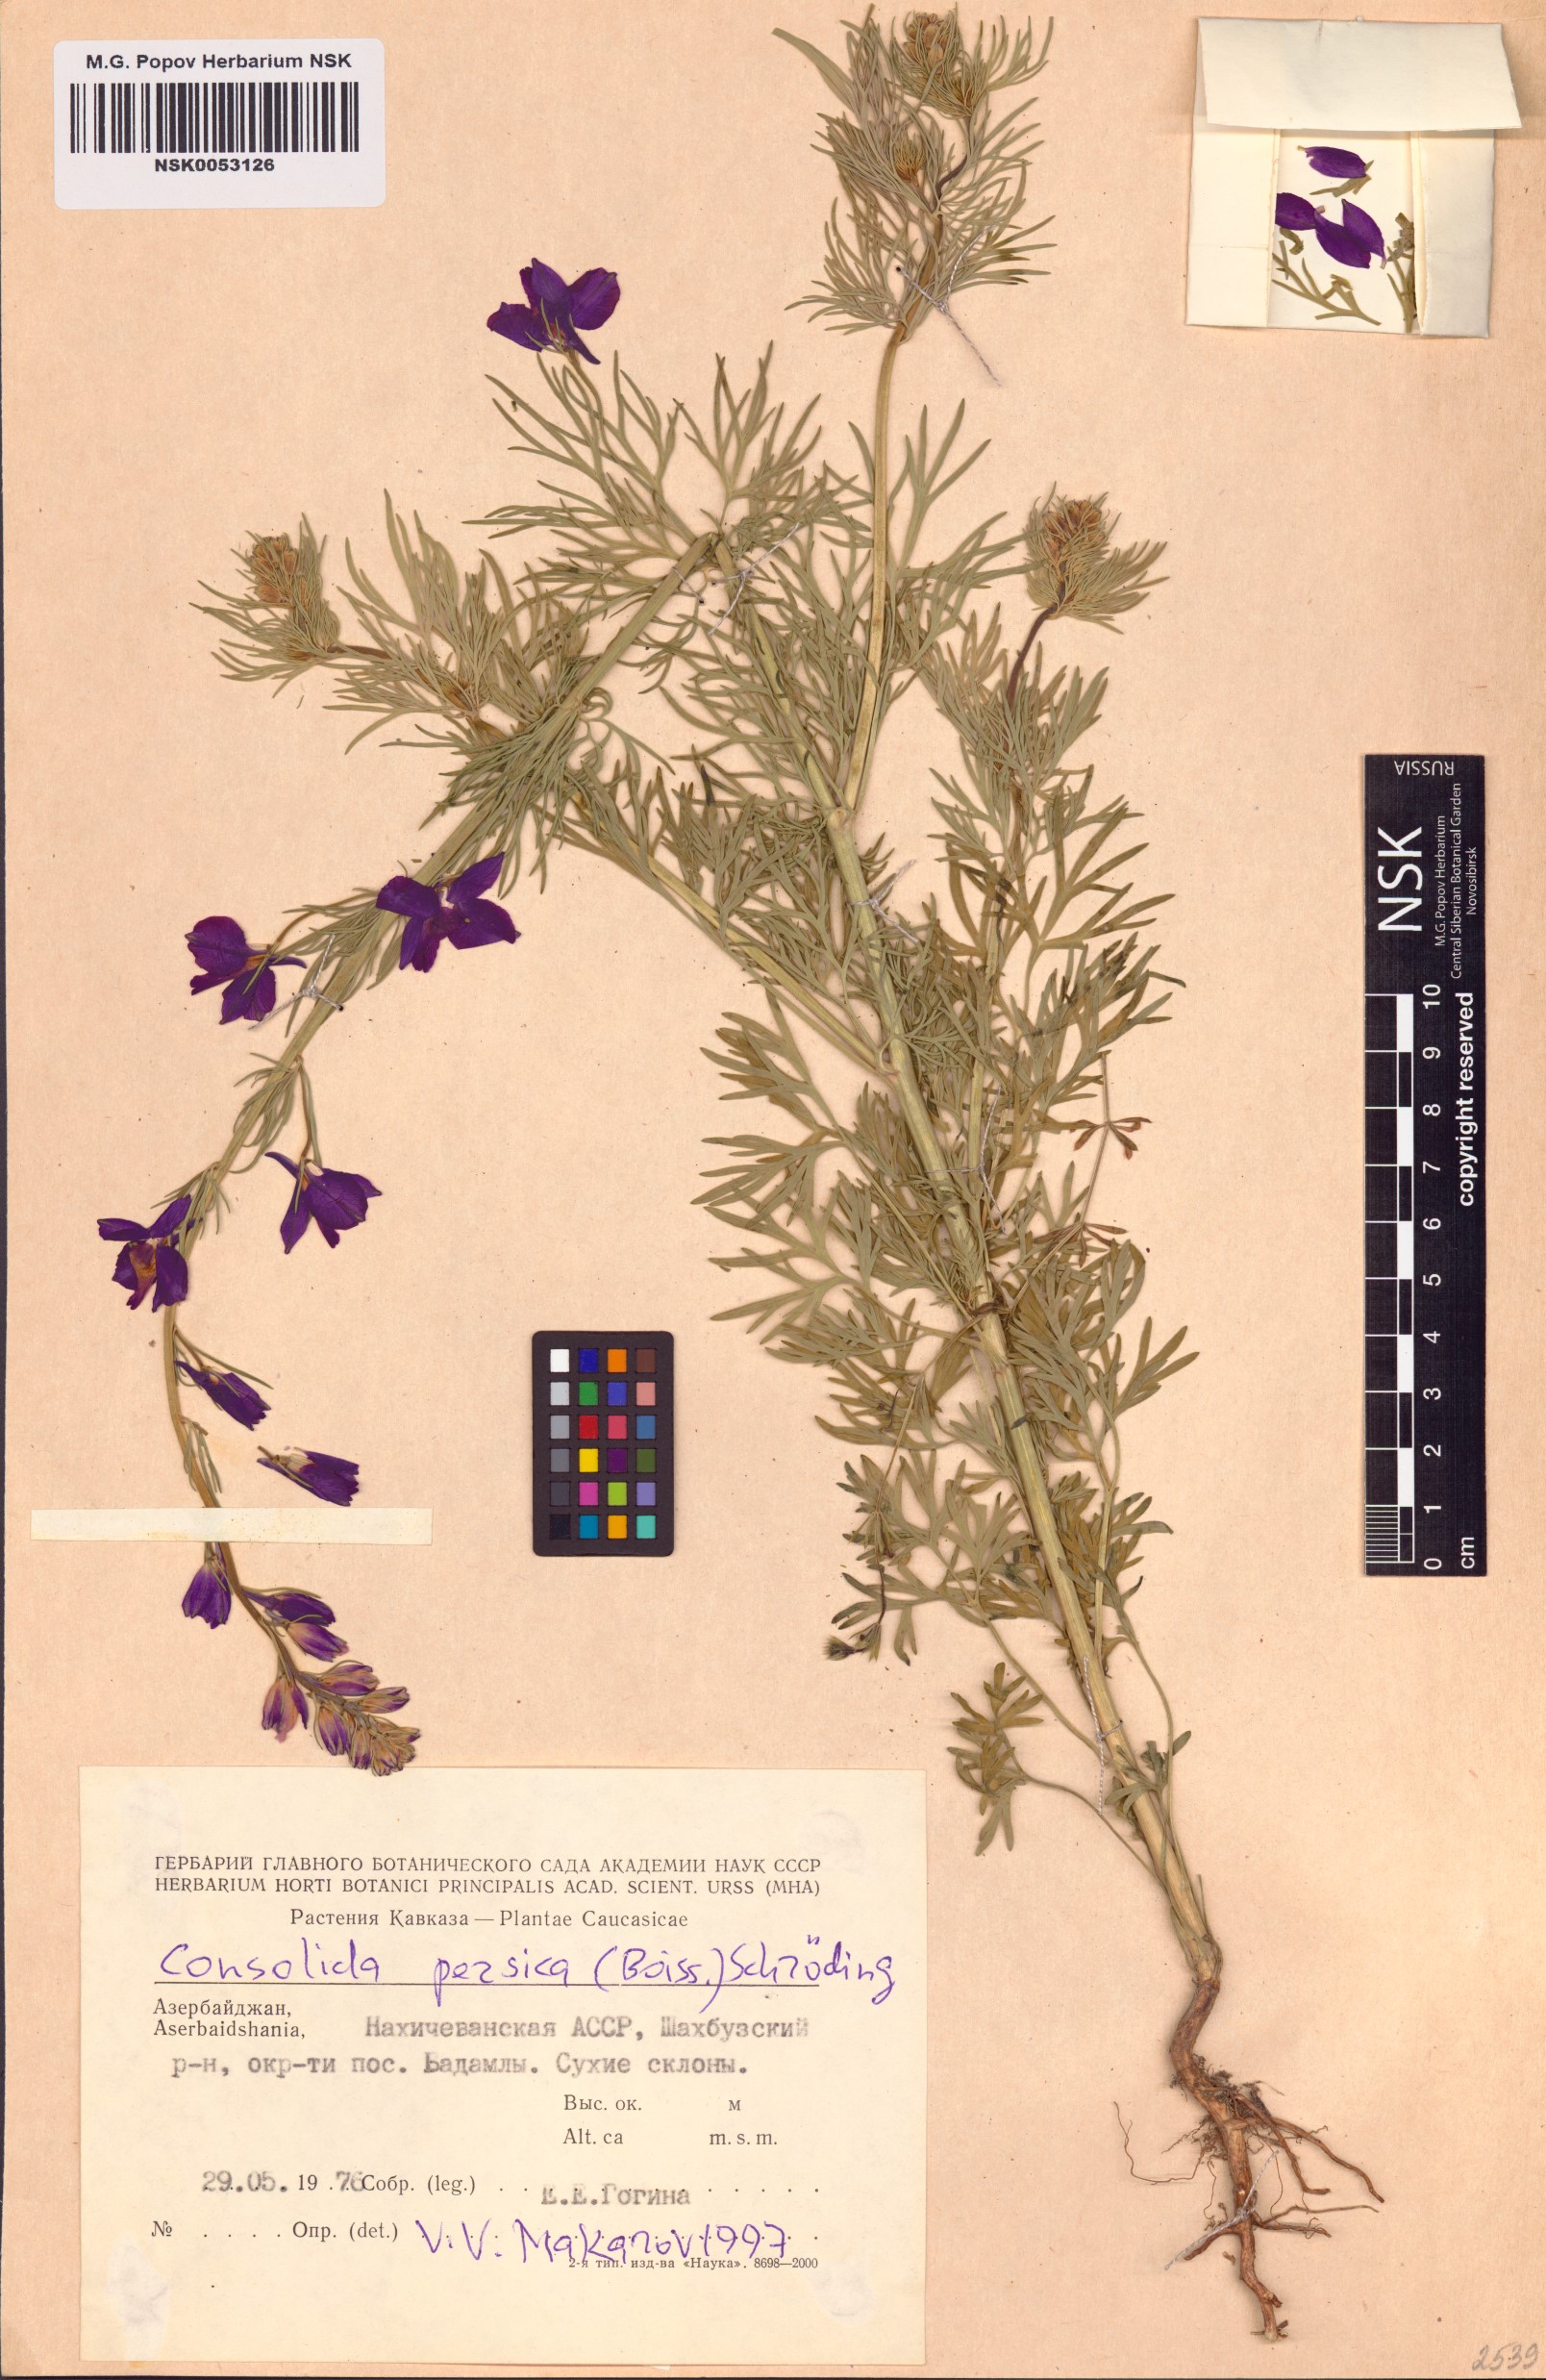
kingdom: Plantae
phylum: Tracheophyta
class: Magnoliopsida
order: Ranunculales
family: Ranunculaceae
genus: Delphinium
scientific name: Delphinium persicum
